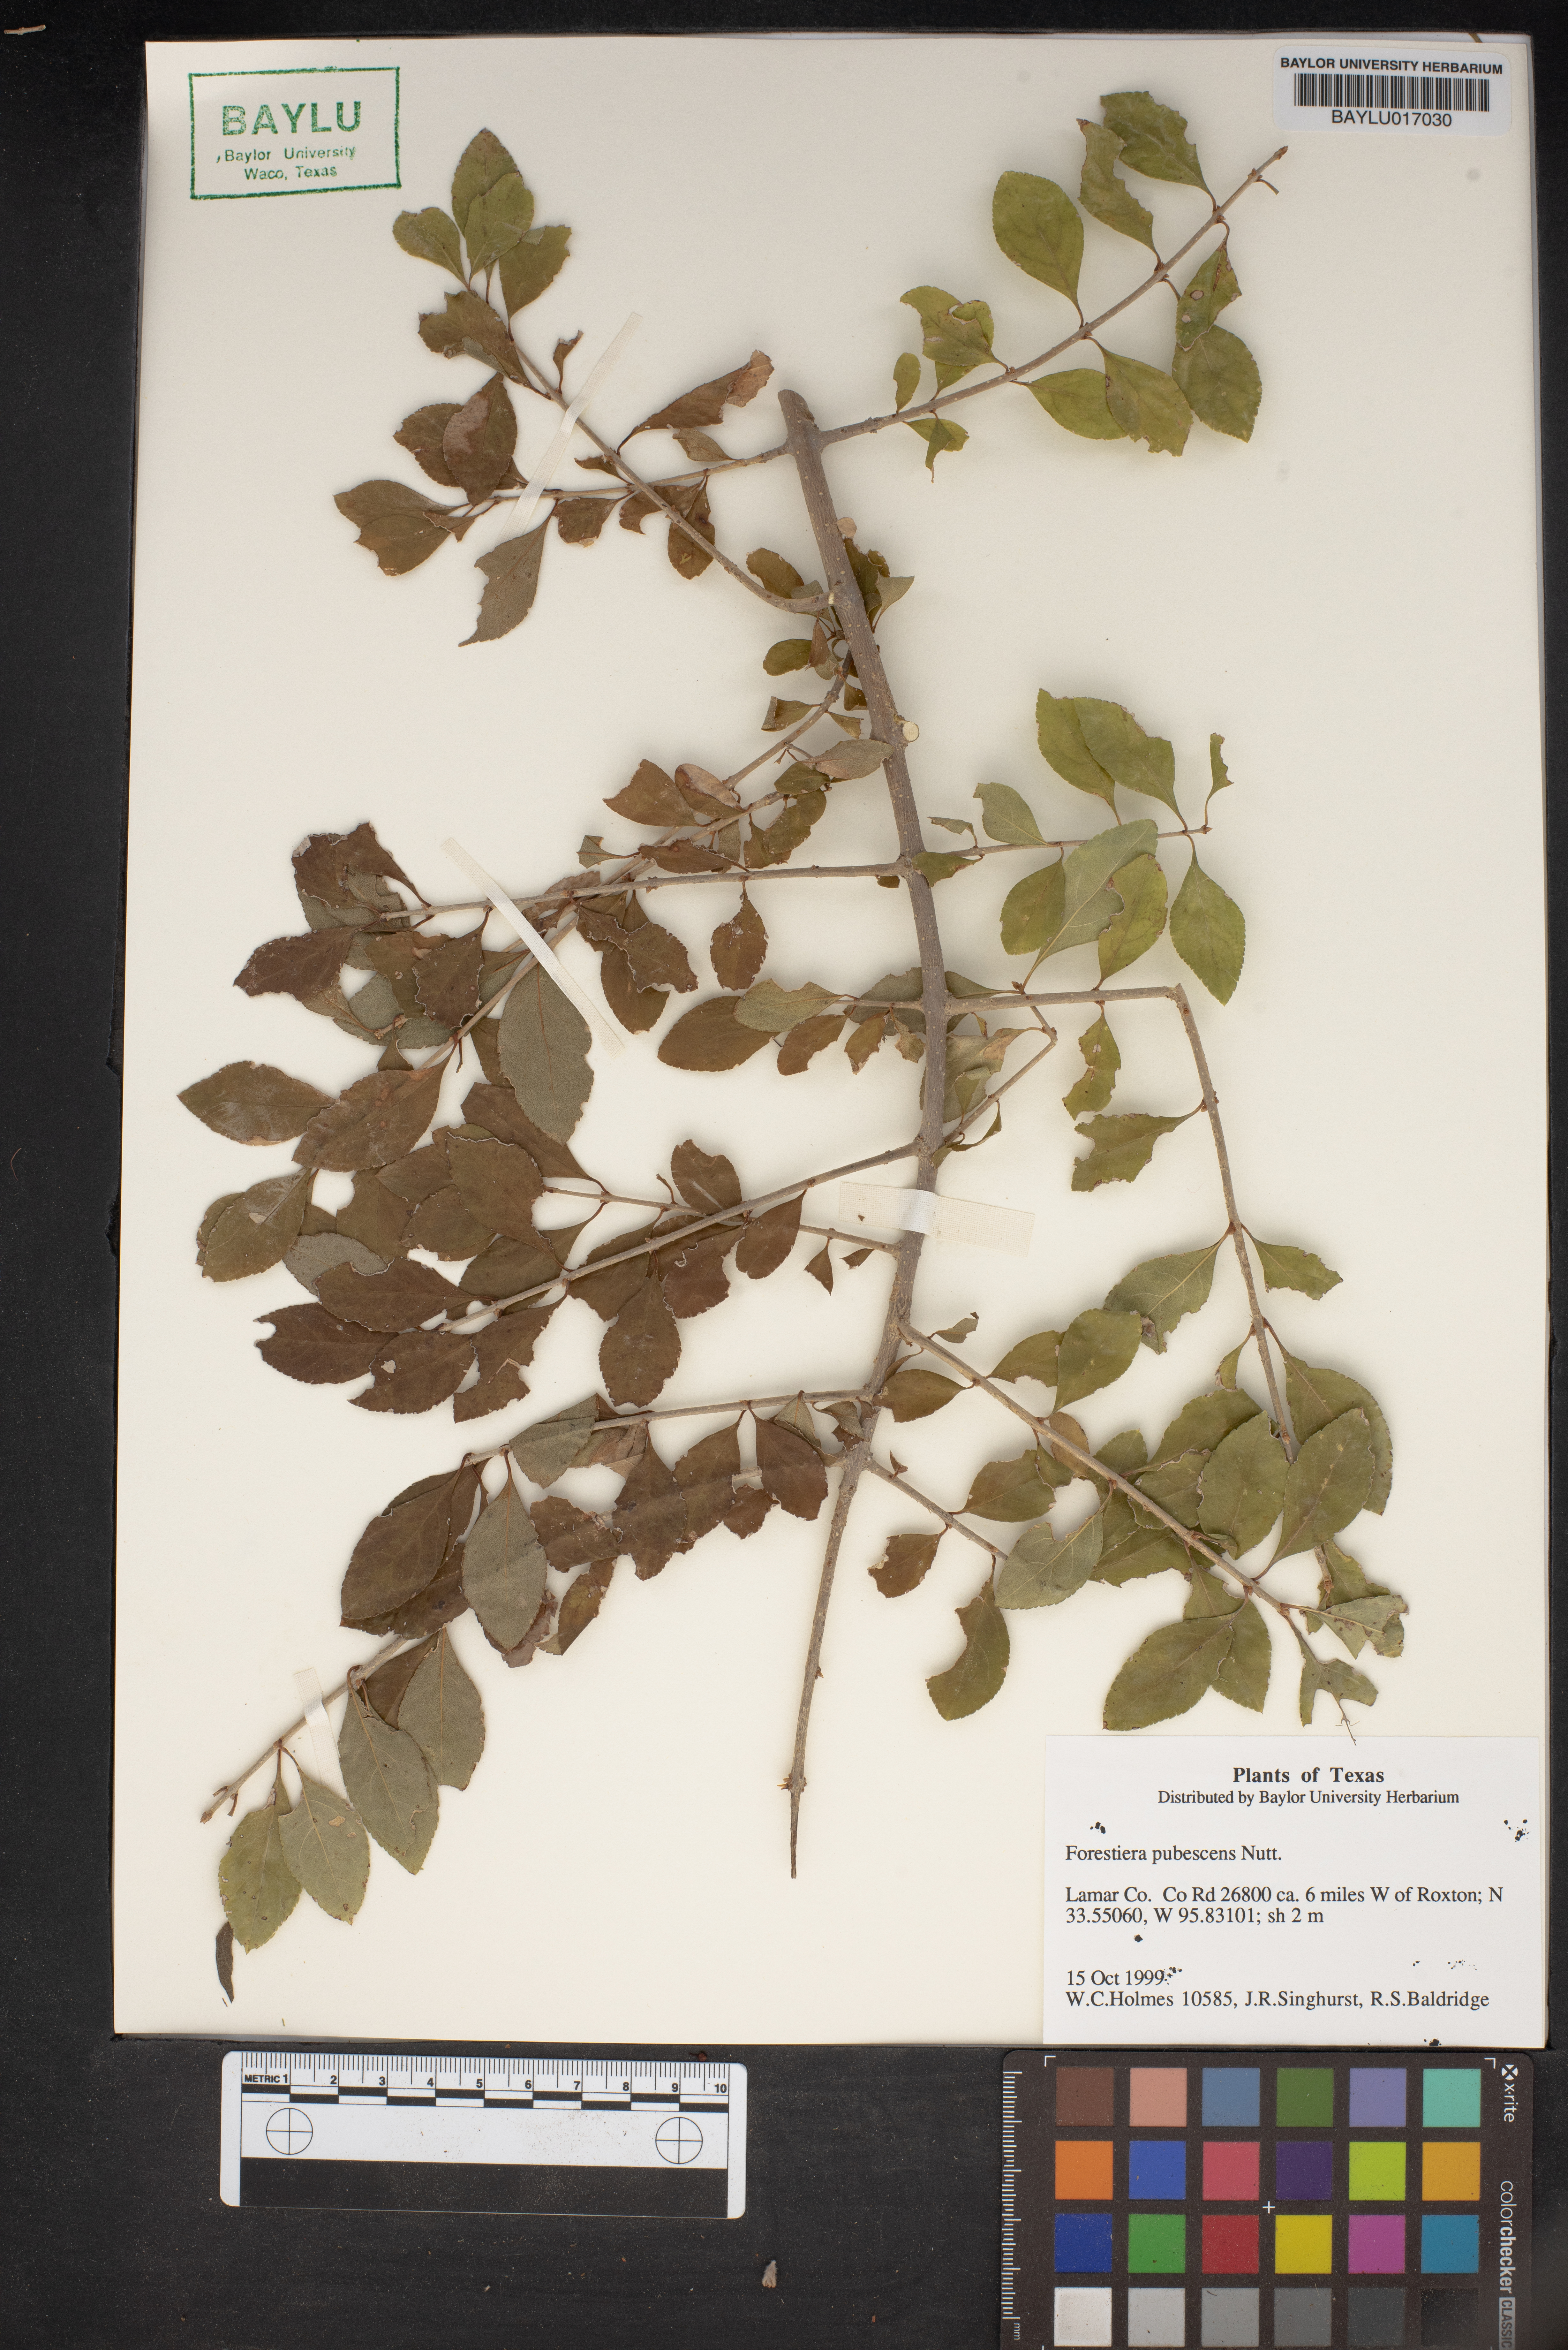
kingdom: Plantae
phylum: Tracheophyta
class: Magnoliopsida
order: Lamiales
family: Oleaceae
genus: Forestiera
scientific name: Forestiera pubescens
